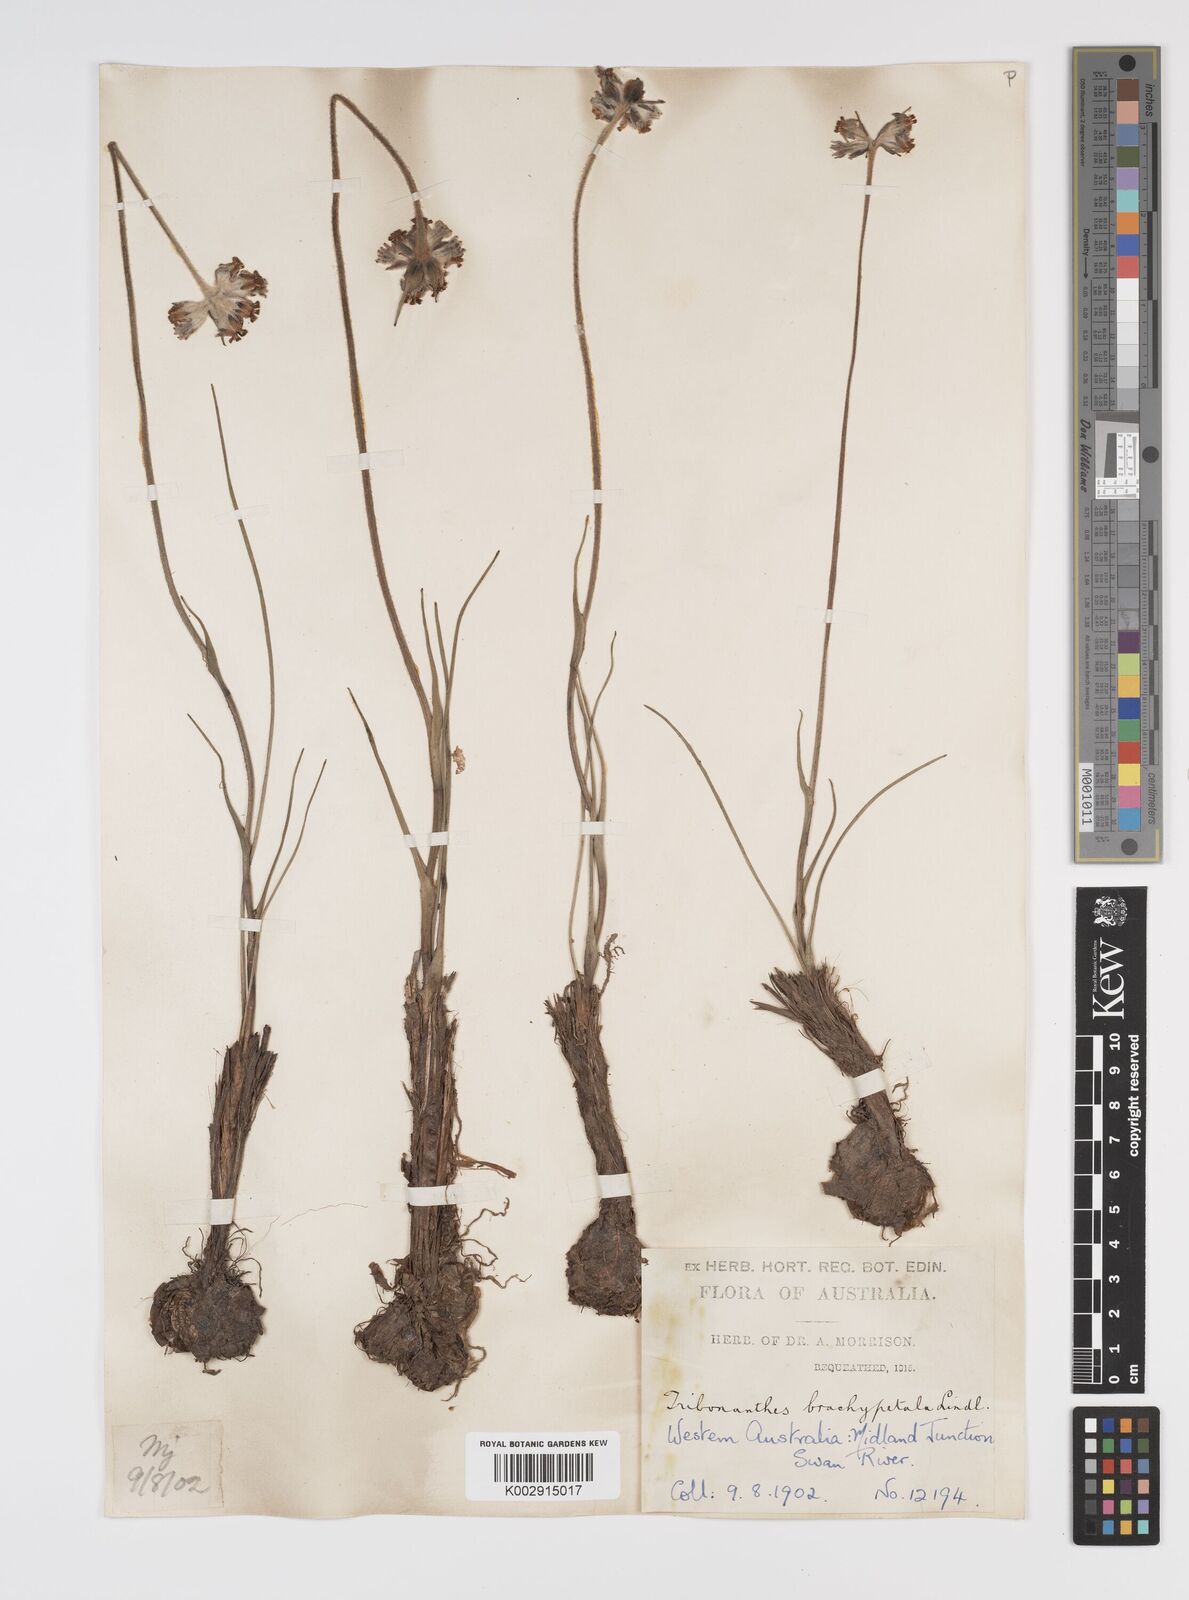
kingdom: Plantae
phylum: Tracheophyta
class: Liliopsida
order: Commelinales
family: Haemodoraceae
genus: Tribonanthes
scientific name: Tribonanthes brachypetala
